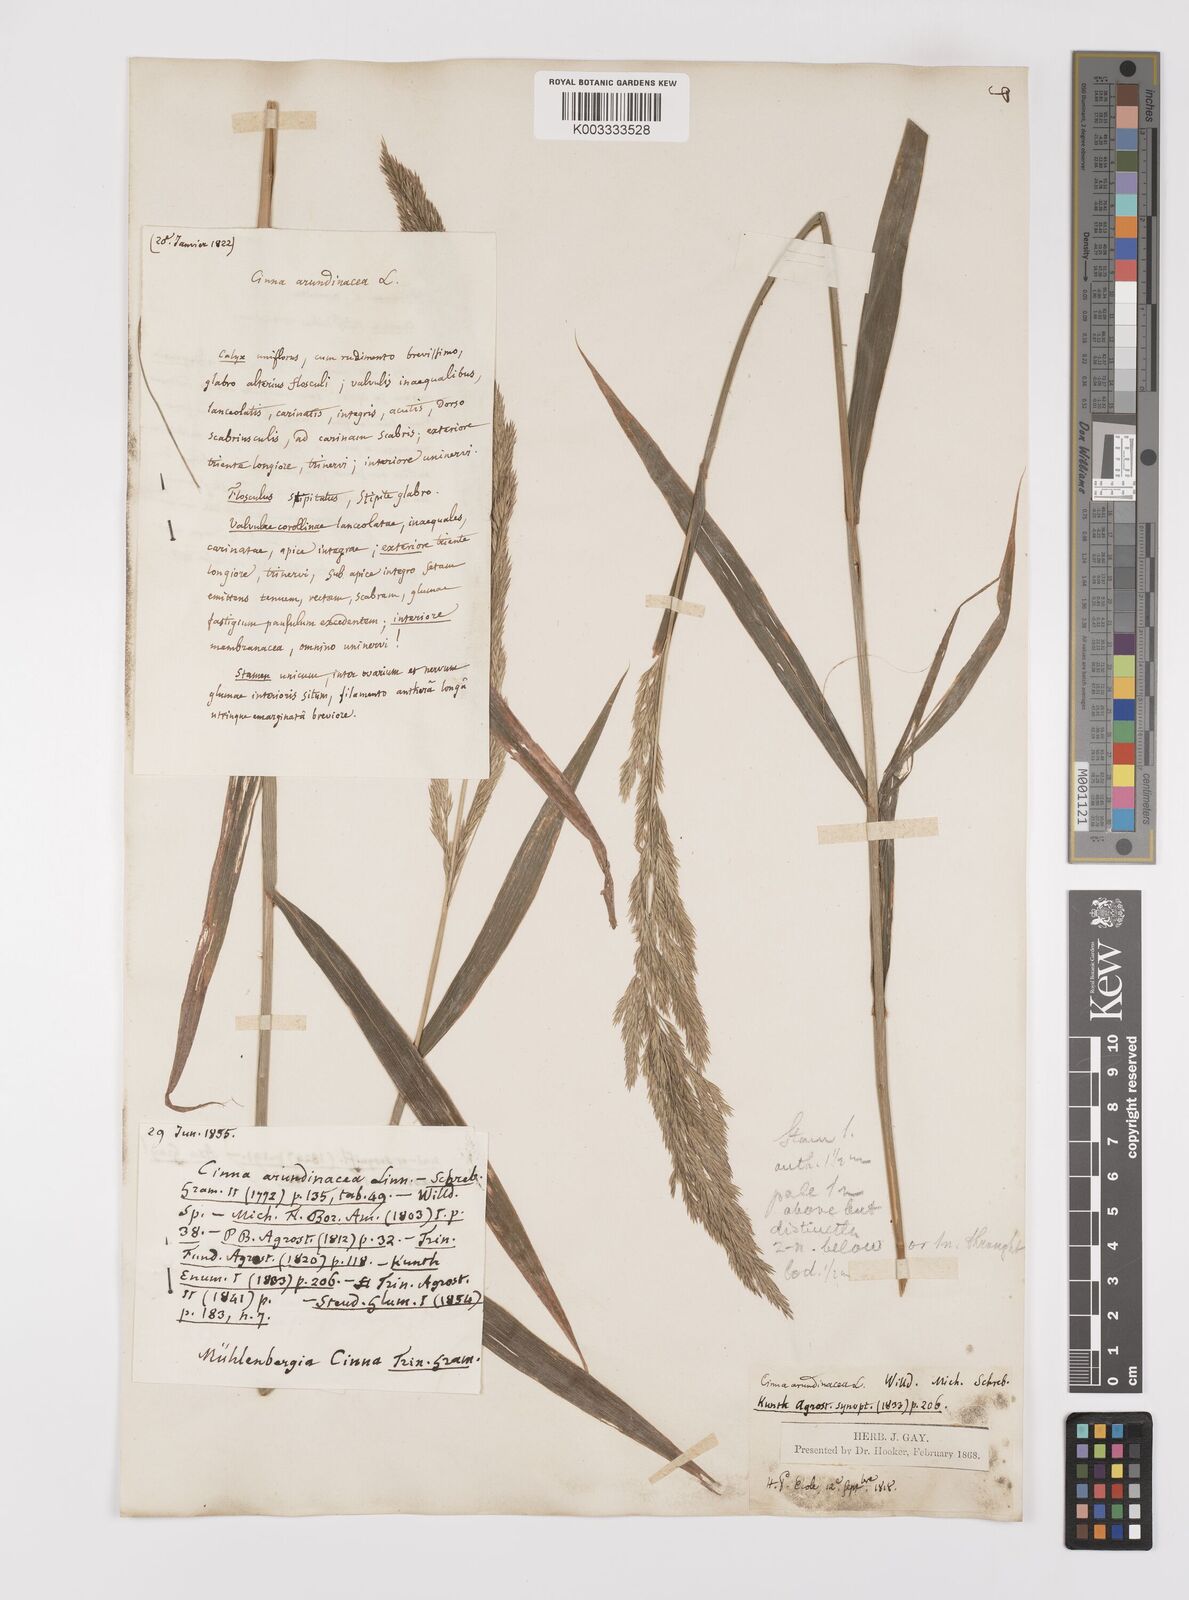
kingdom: Plantae
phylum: Tracheophyta
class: Liliopsida
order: Poales
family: Poaceae
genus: Cinna
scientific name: Cinna
